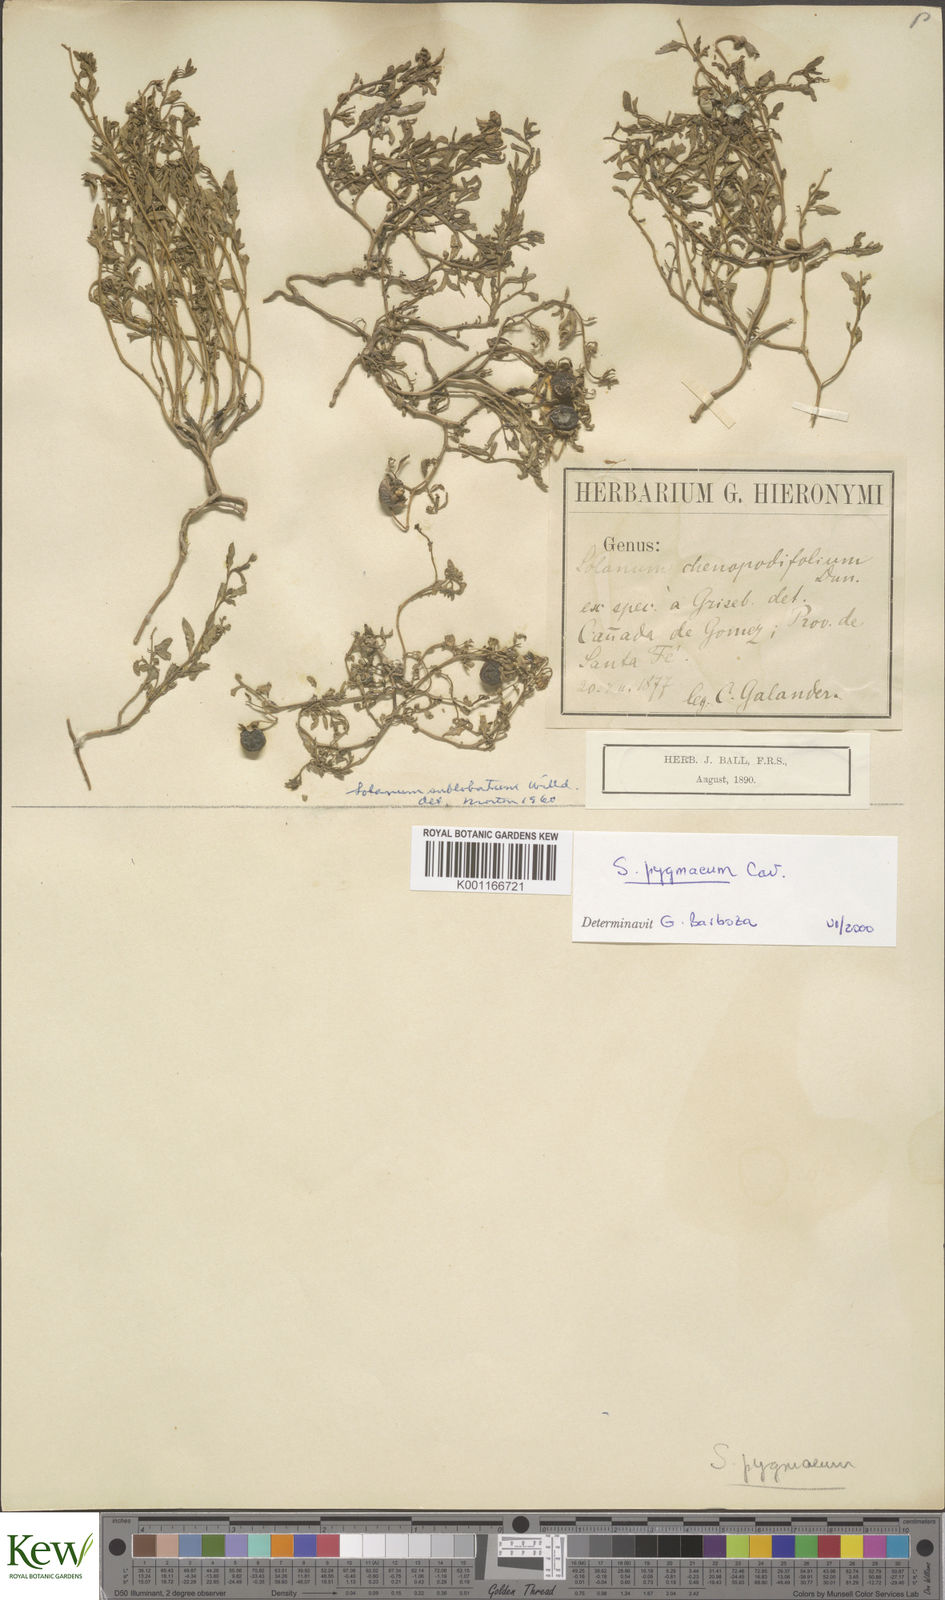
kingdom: Plantae
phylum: Tracheophyta
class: Magnoliopsida
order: Solanales
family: Solanaceae
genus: Solanum
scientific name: Solanum pygmaeum
